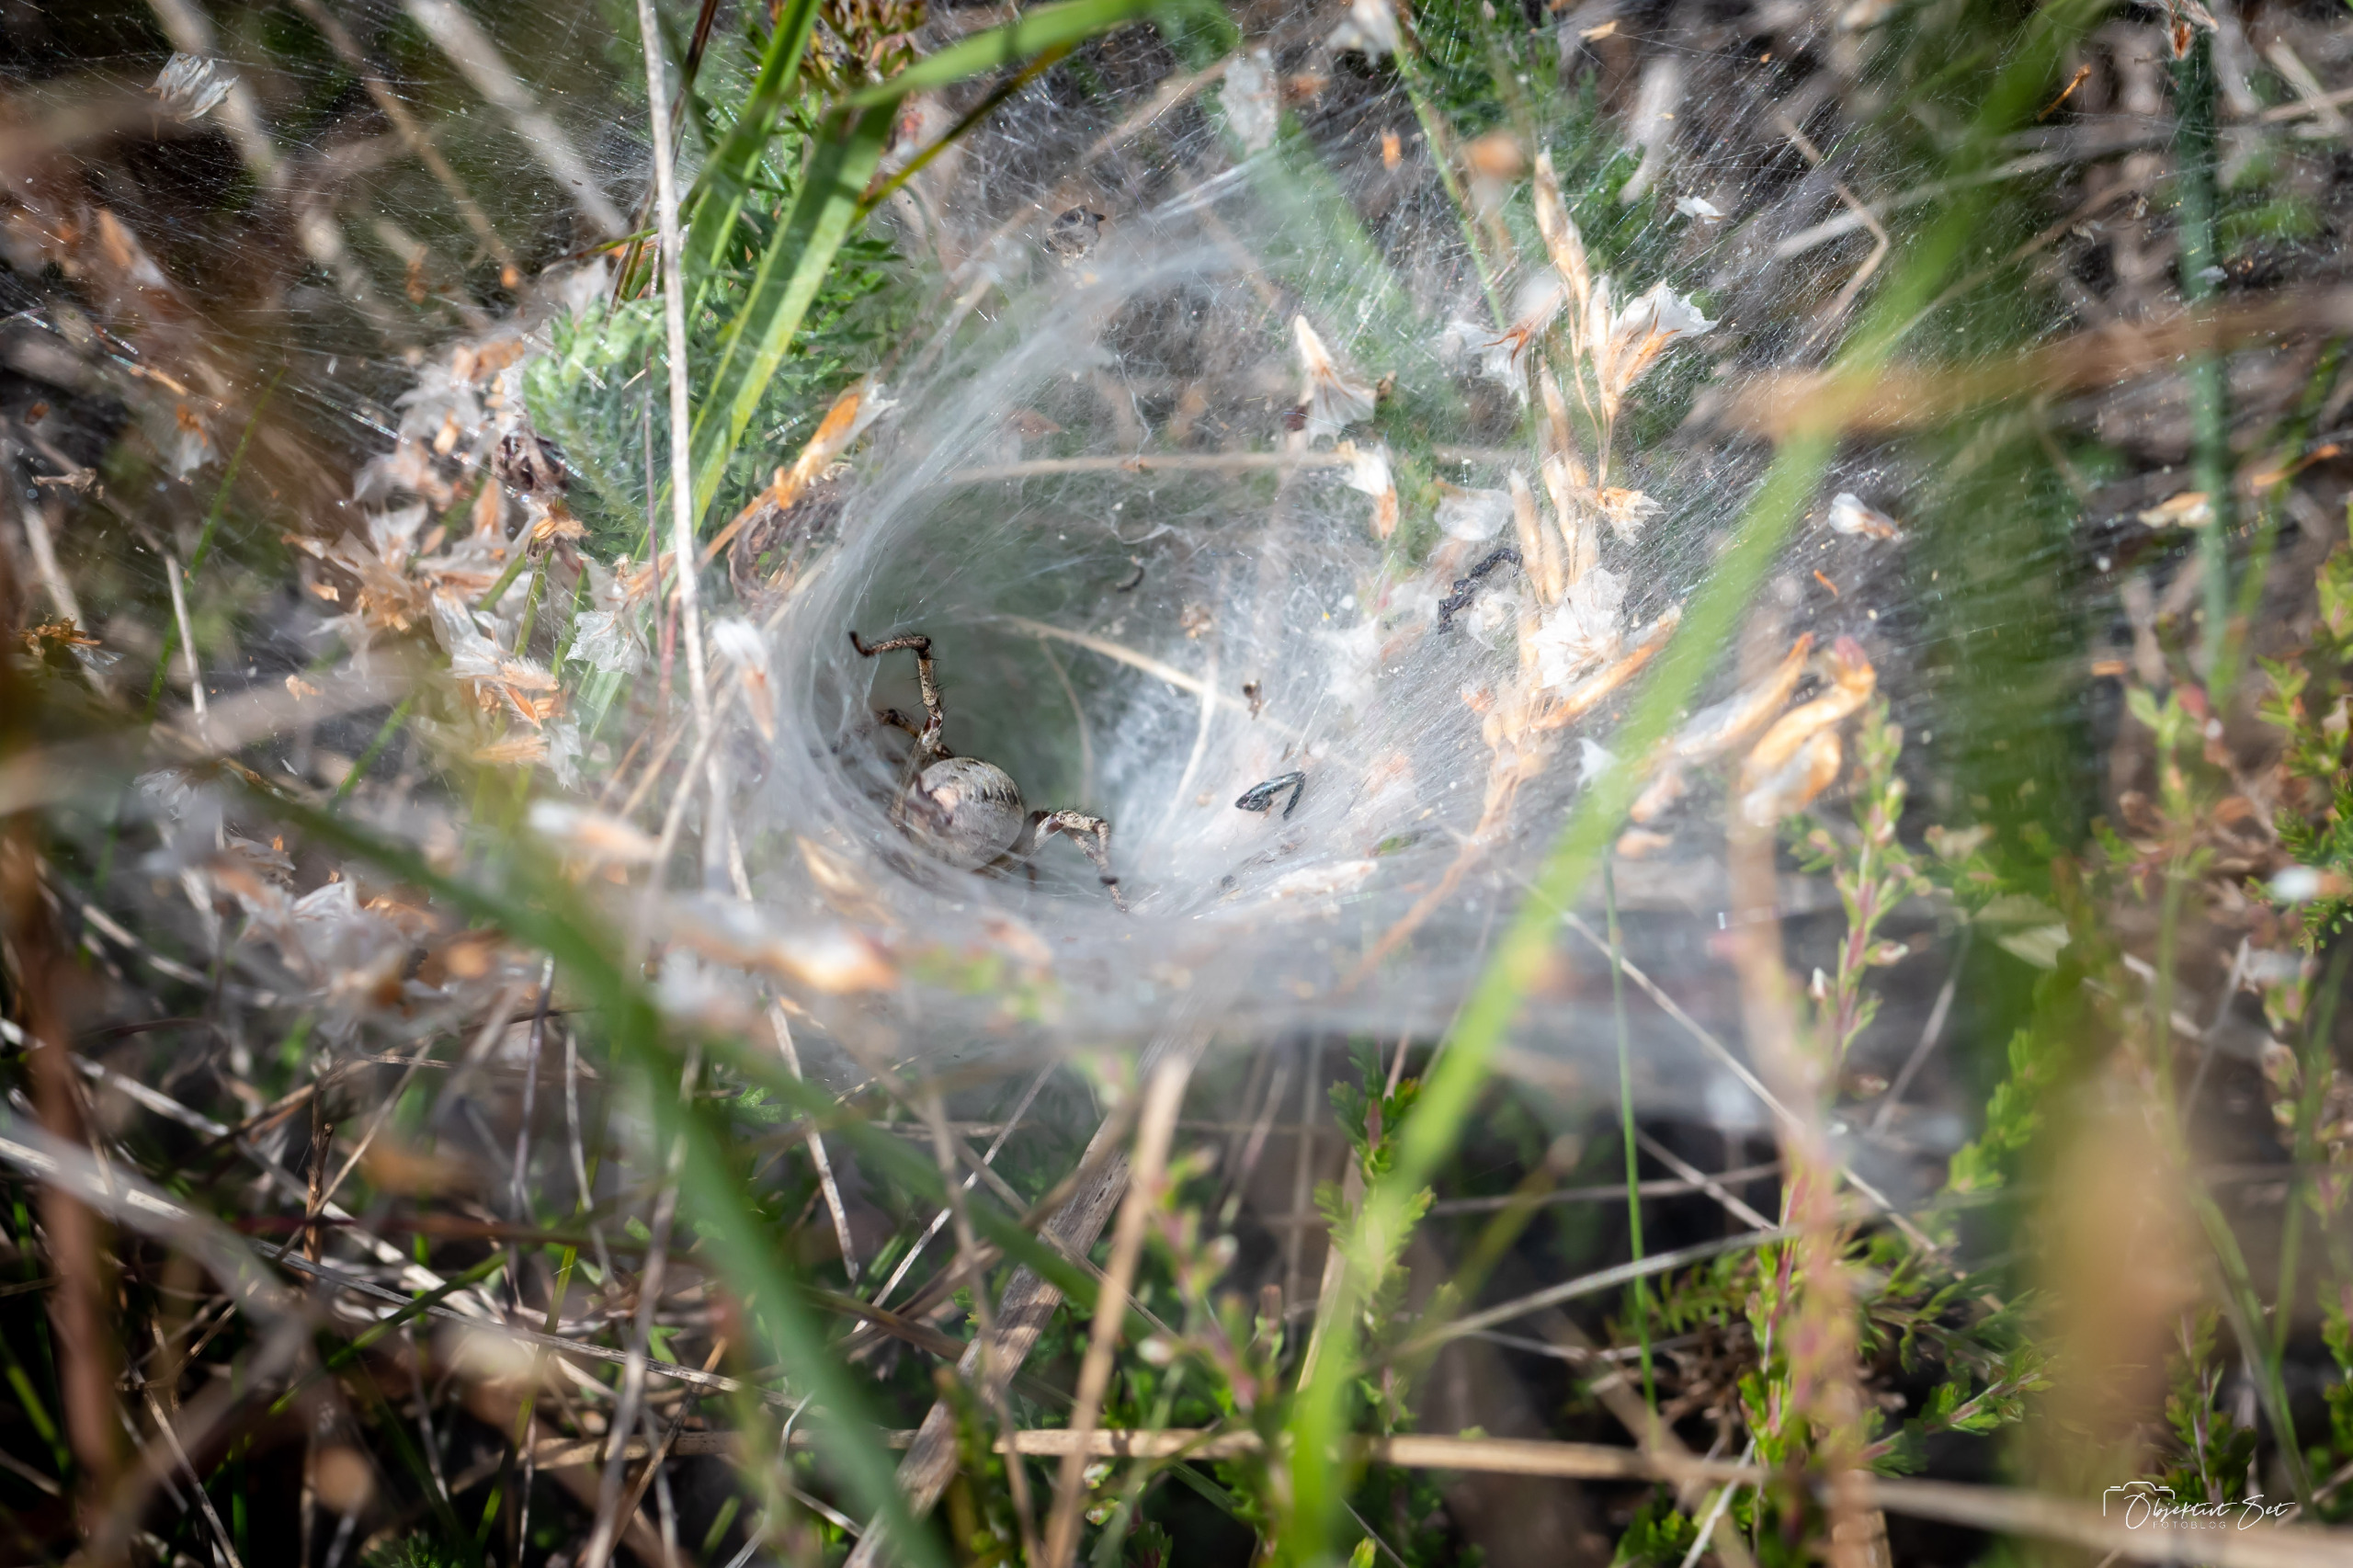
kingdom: Animalia
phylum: Arthropoda
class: Arachnida
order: Araneae
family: Agelenidae
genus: Agelena
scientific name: Agelena labyrinthica
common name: Labyrintedderkop
